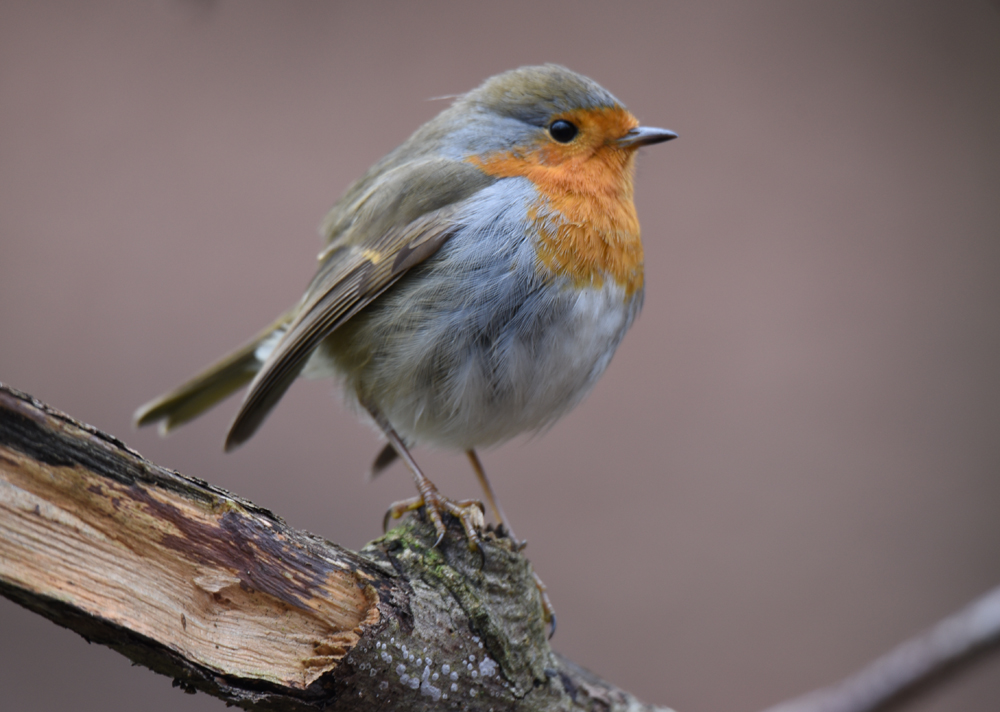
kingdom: Animalia
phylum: Chordata
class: Aves
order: Passeriformes
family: Muscicapidae
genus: Erithacus
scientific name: Erithacus rubecula
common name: European robin
